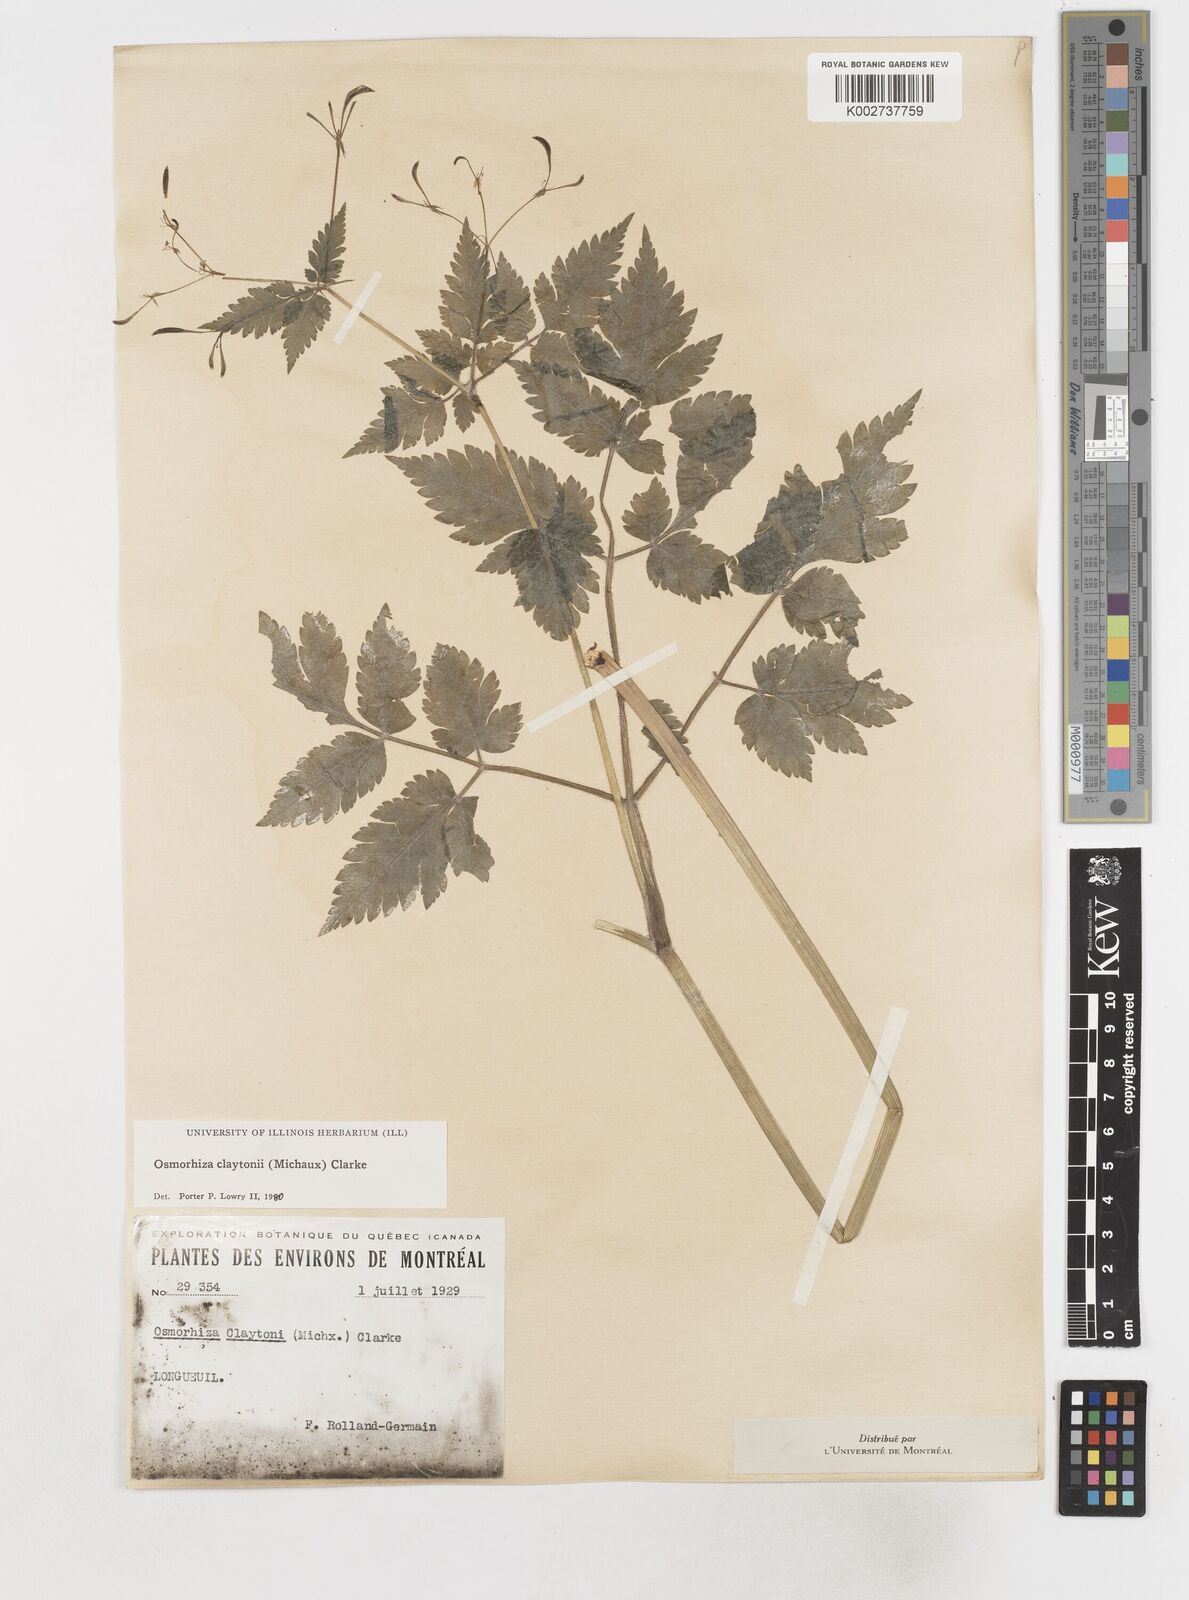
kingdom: Plantae
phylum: Tracheophyta
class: Magnoliopsida
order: Apiales
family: Apiaceae
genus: Osmorhiza
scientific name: Osmorhiza claytonii
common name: Hairy sweet cicely
